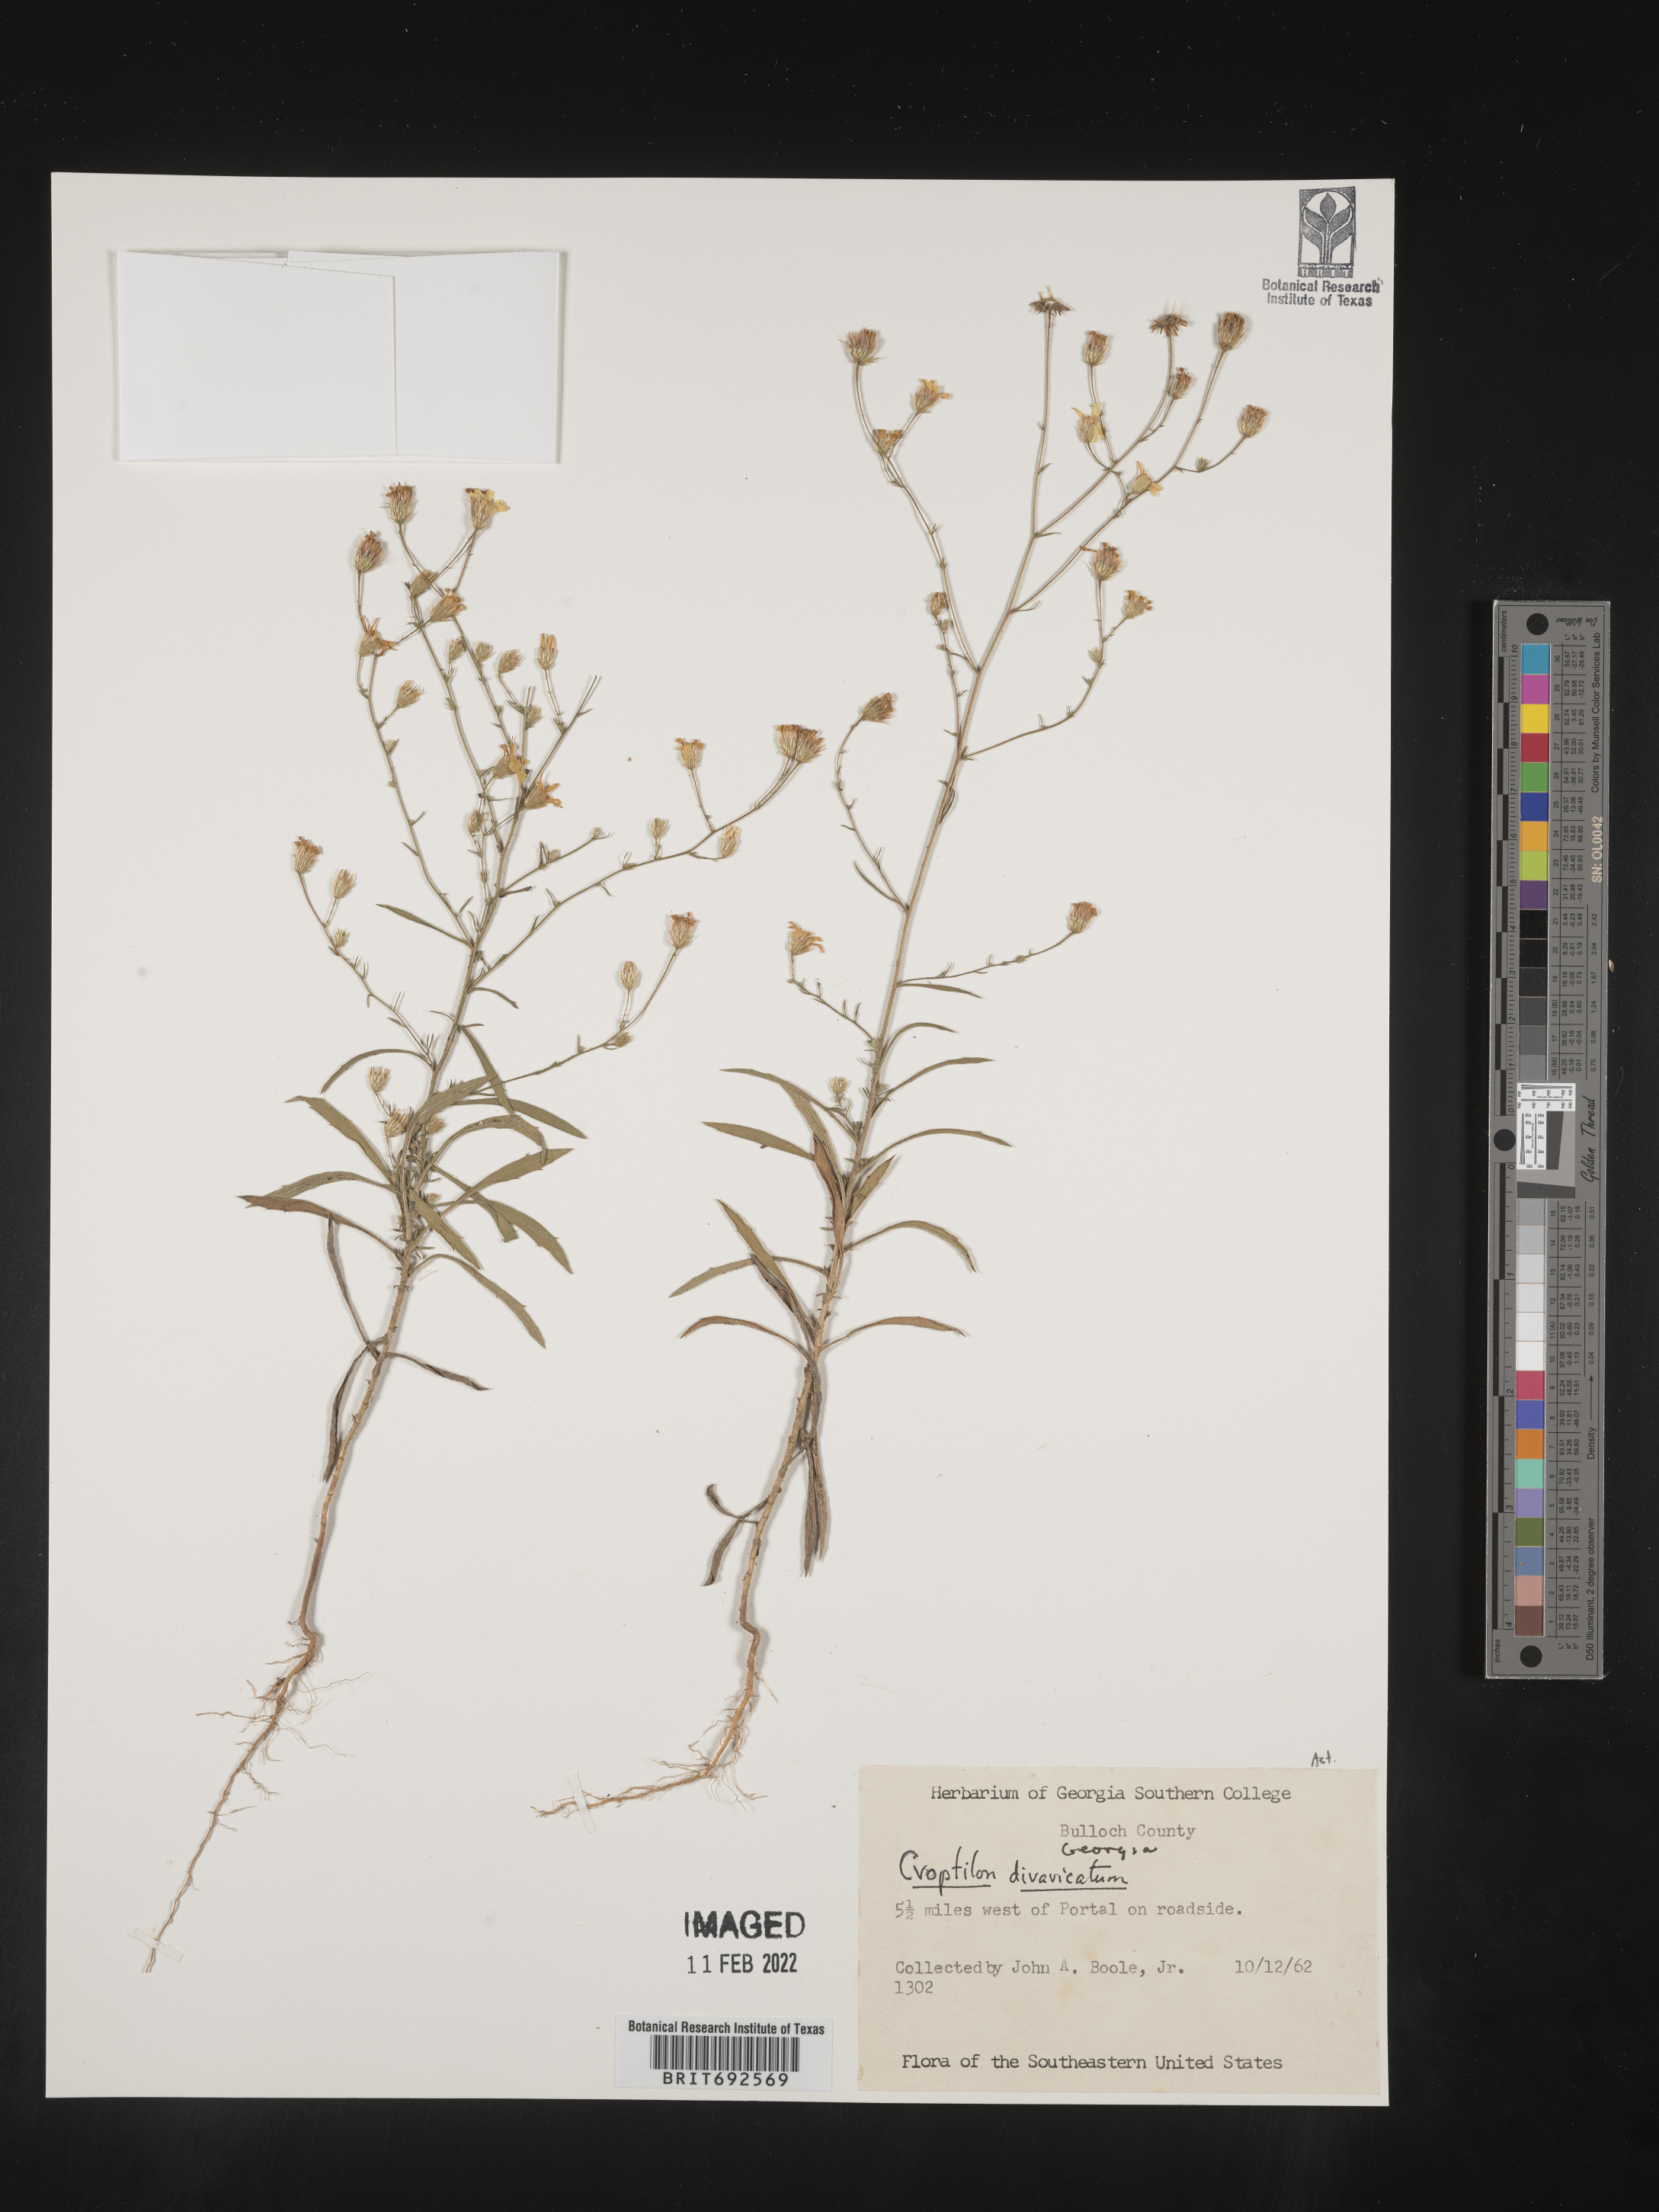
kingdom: Plantae
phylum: Tracheophyta
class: Magnoliopsida
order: Asterales
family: Asteraceae
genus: Croptilon
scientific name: Croptilon divaricatum
